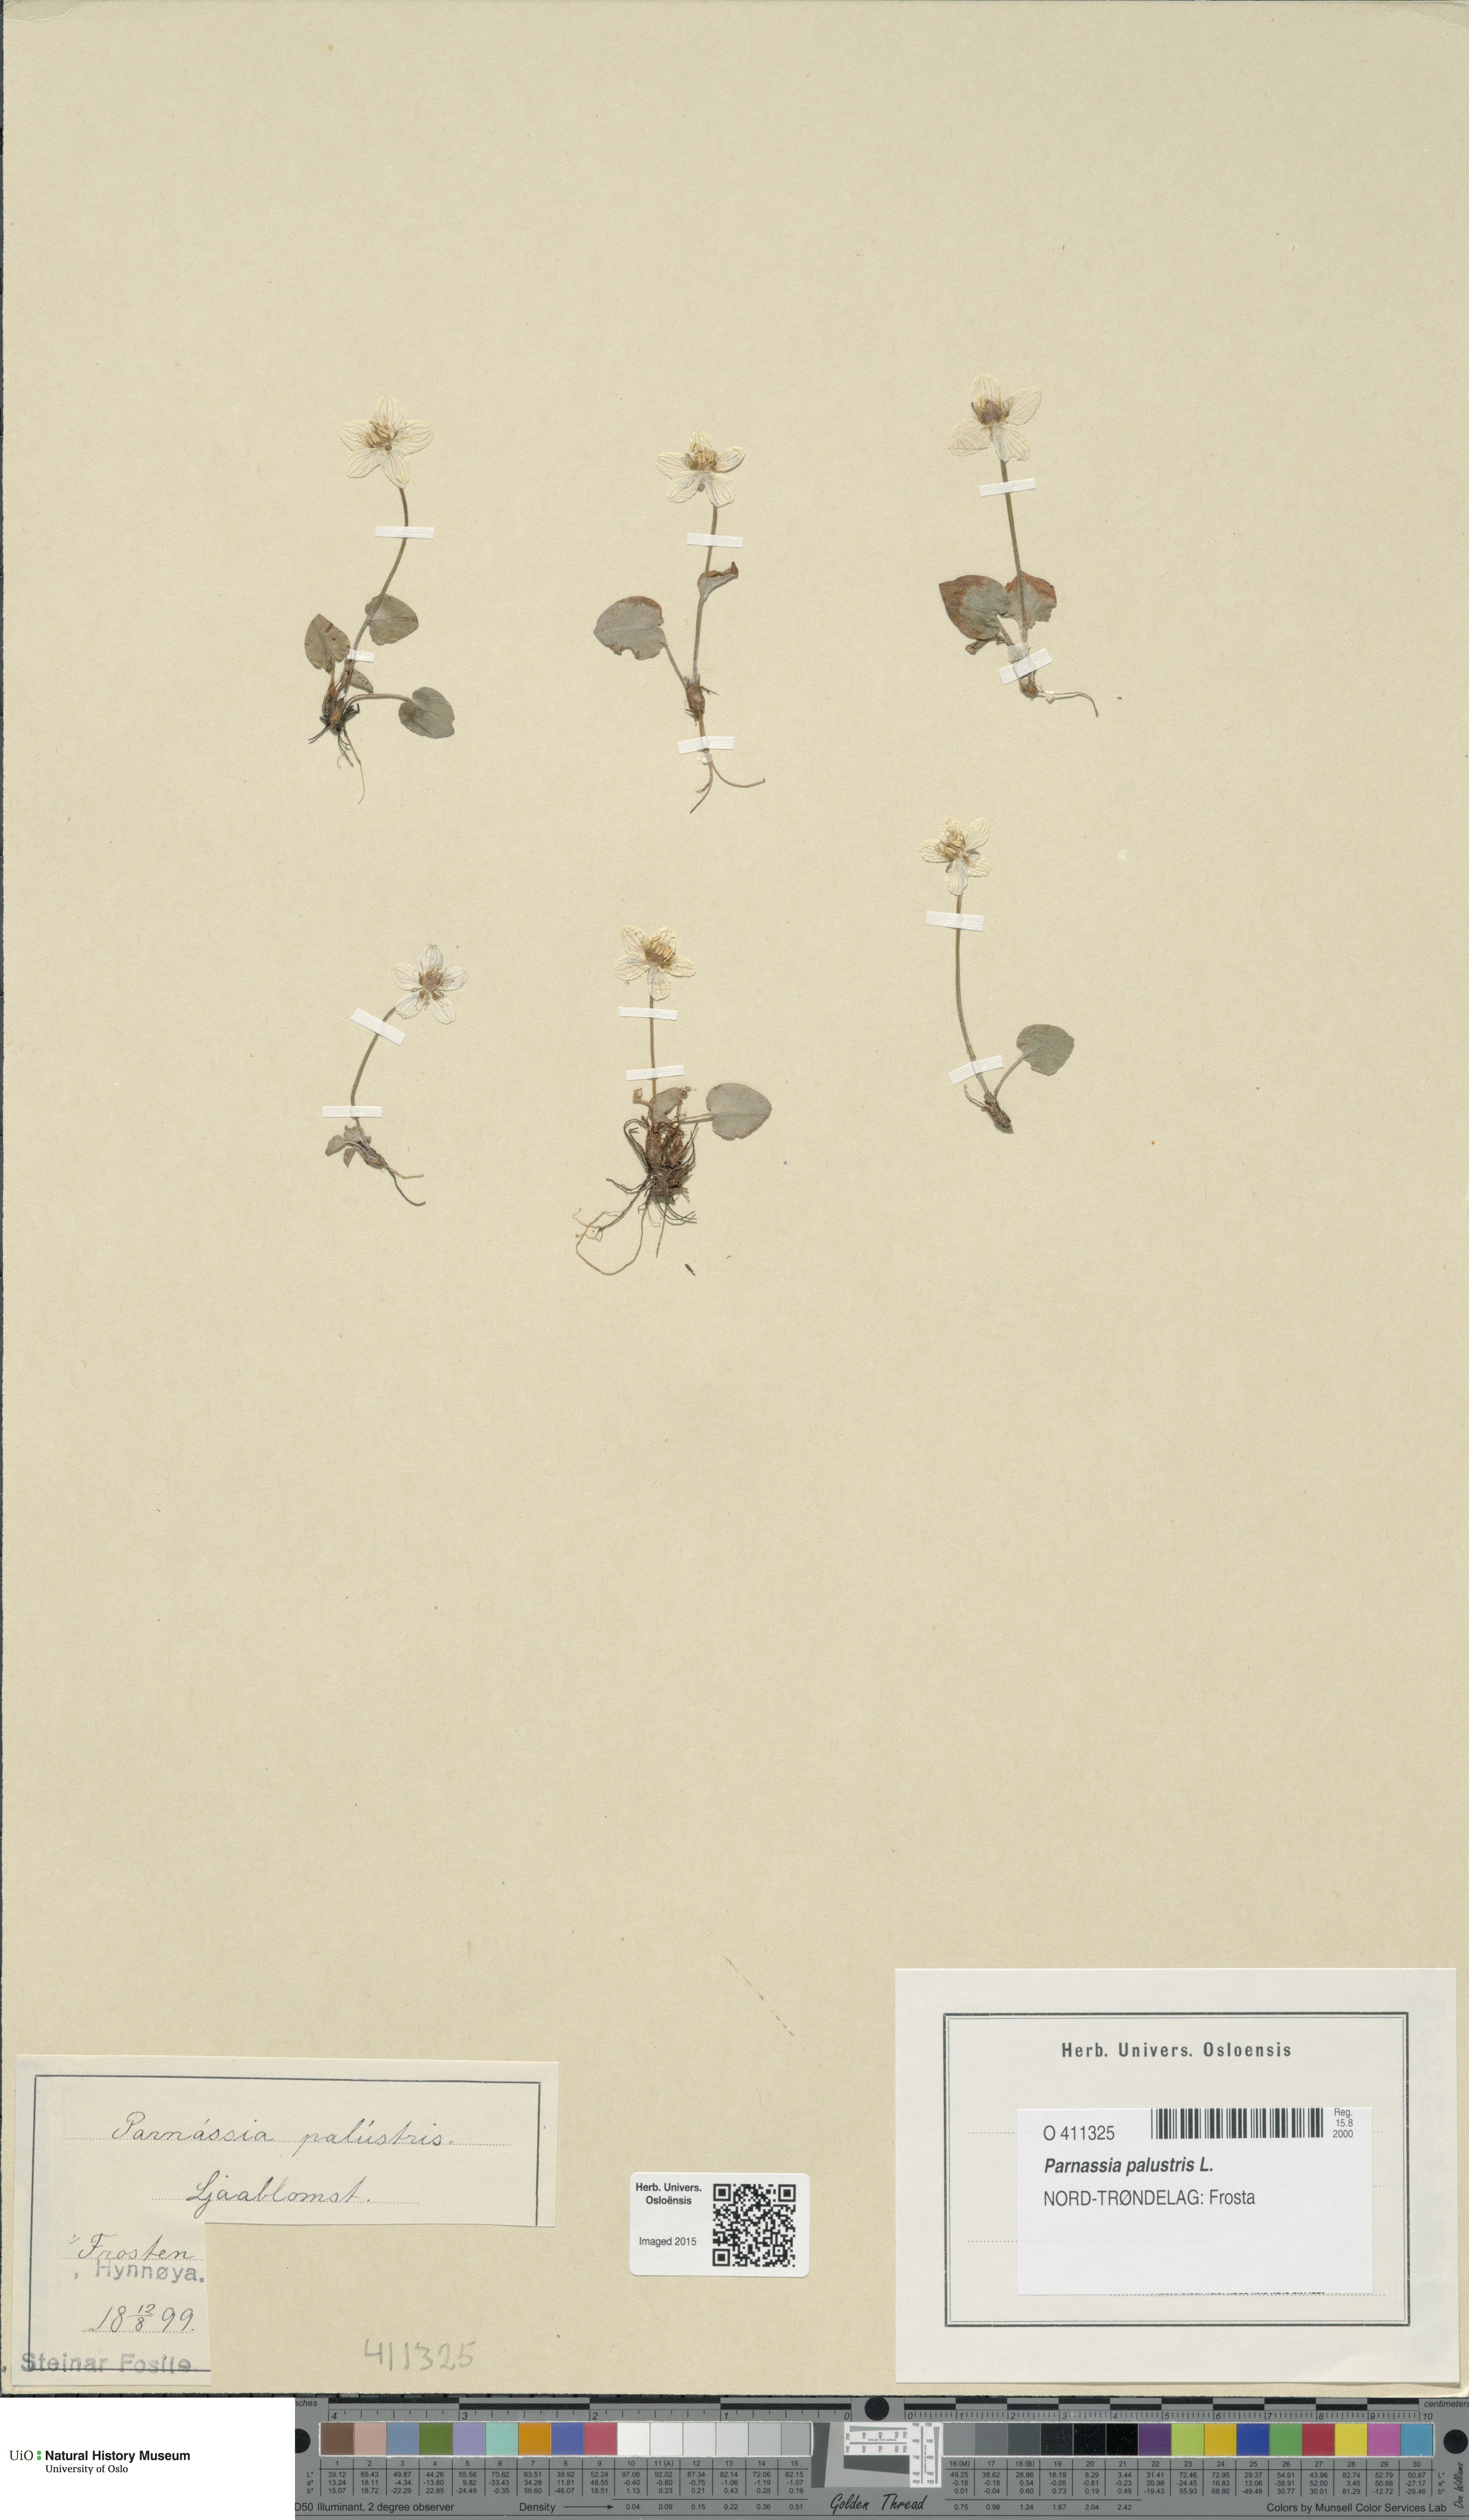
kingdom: Plantae
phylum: Tracheophyta
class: Magnoliopsida
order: Celastrales
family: Parnassiaceae
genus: Parnassia
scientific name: Parnassia palustris
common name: Grass-of-parnassus
